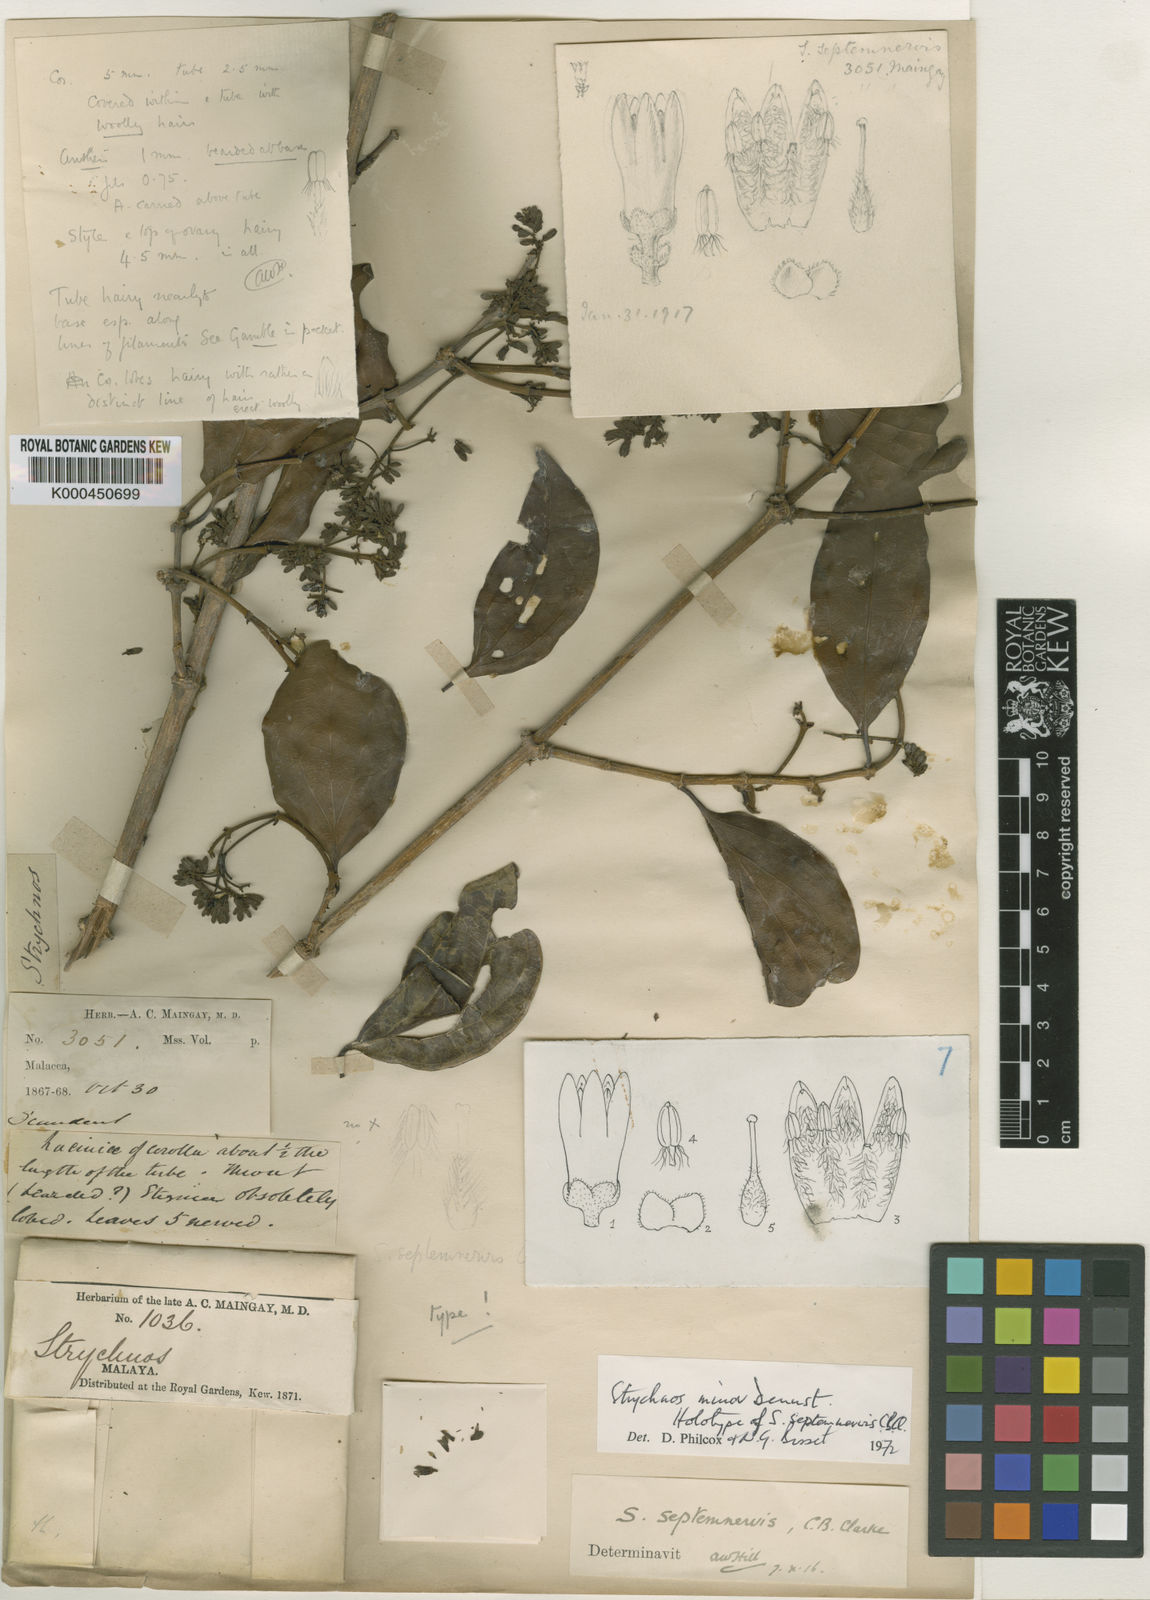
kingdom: Plantae
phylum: Tracheophyta
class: Magnoliopsida
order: Gentianales
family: Loganiaceae
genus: Strychnos
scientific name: Strychnos minor
